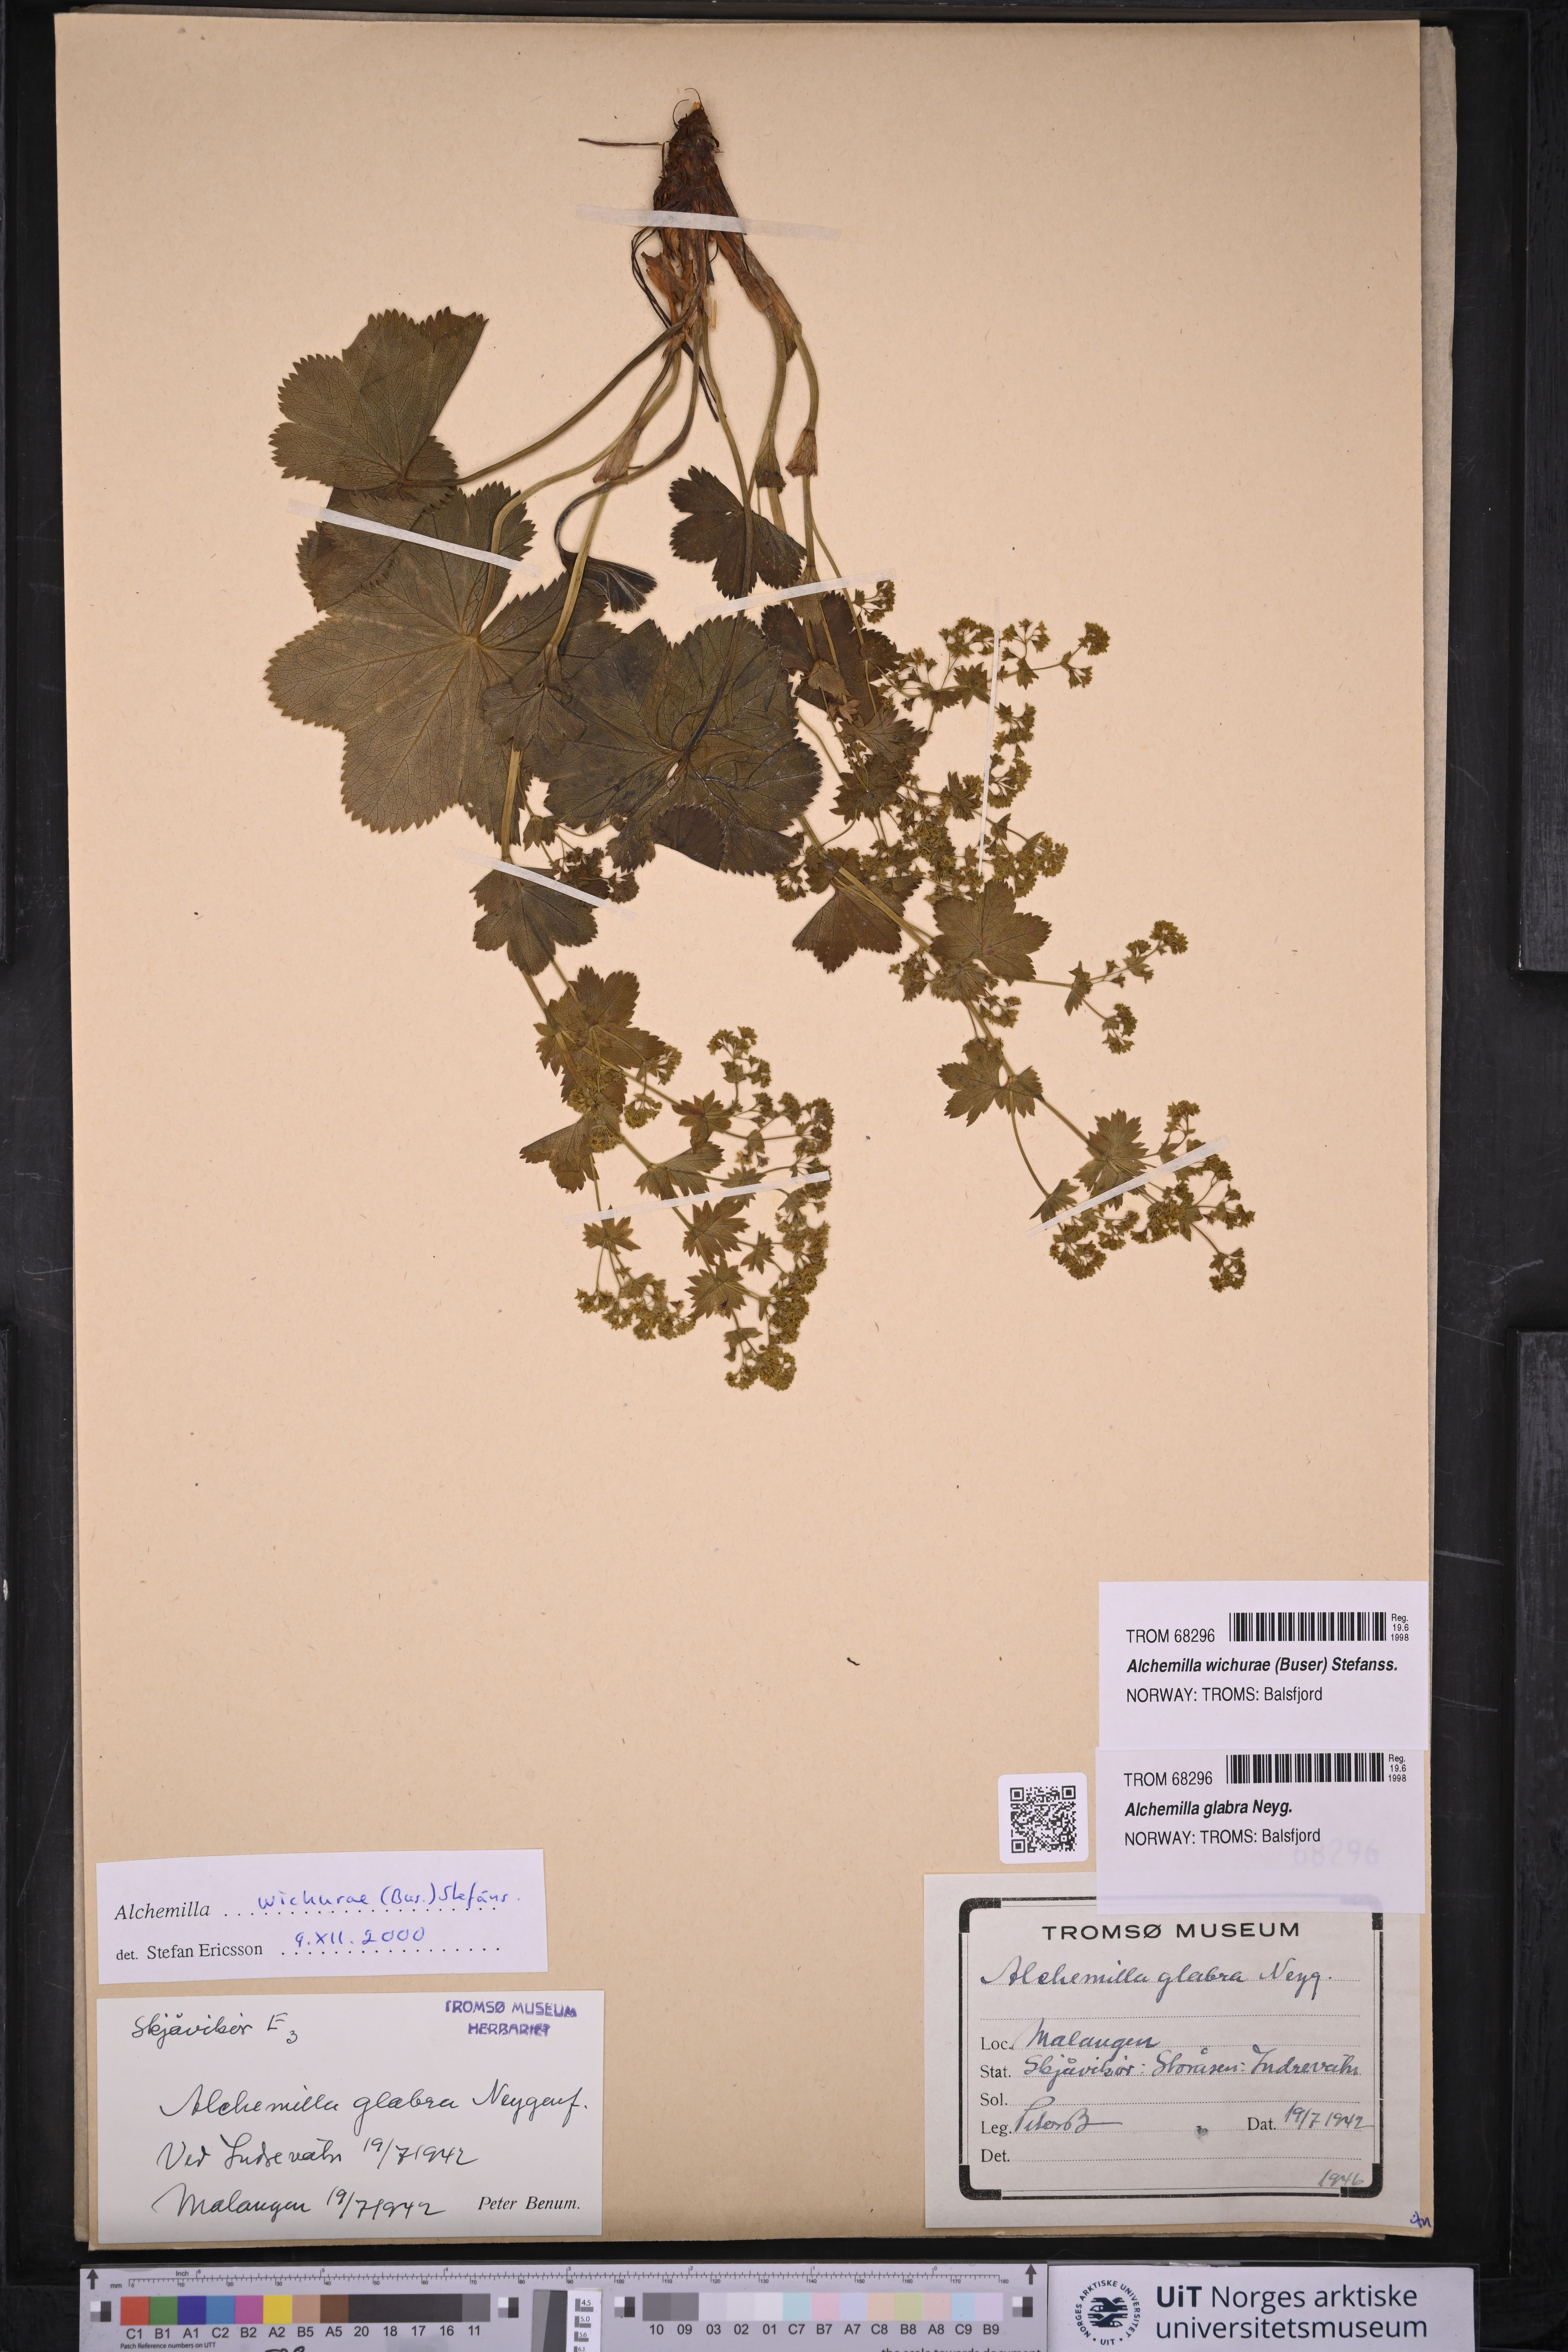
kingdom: Plantae
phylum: Tracheophyta
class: Magnoliopsida
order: Rosales
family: Rosaceae
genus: Alchemilla
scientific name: Alchemilla wichurae
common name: Rock lady's mantle
